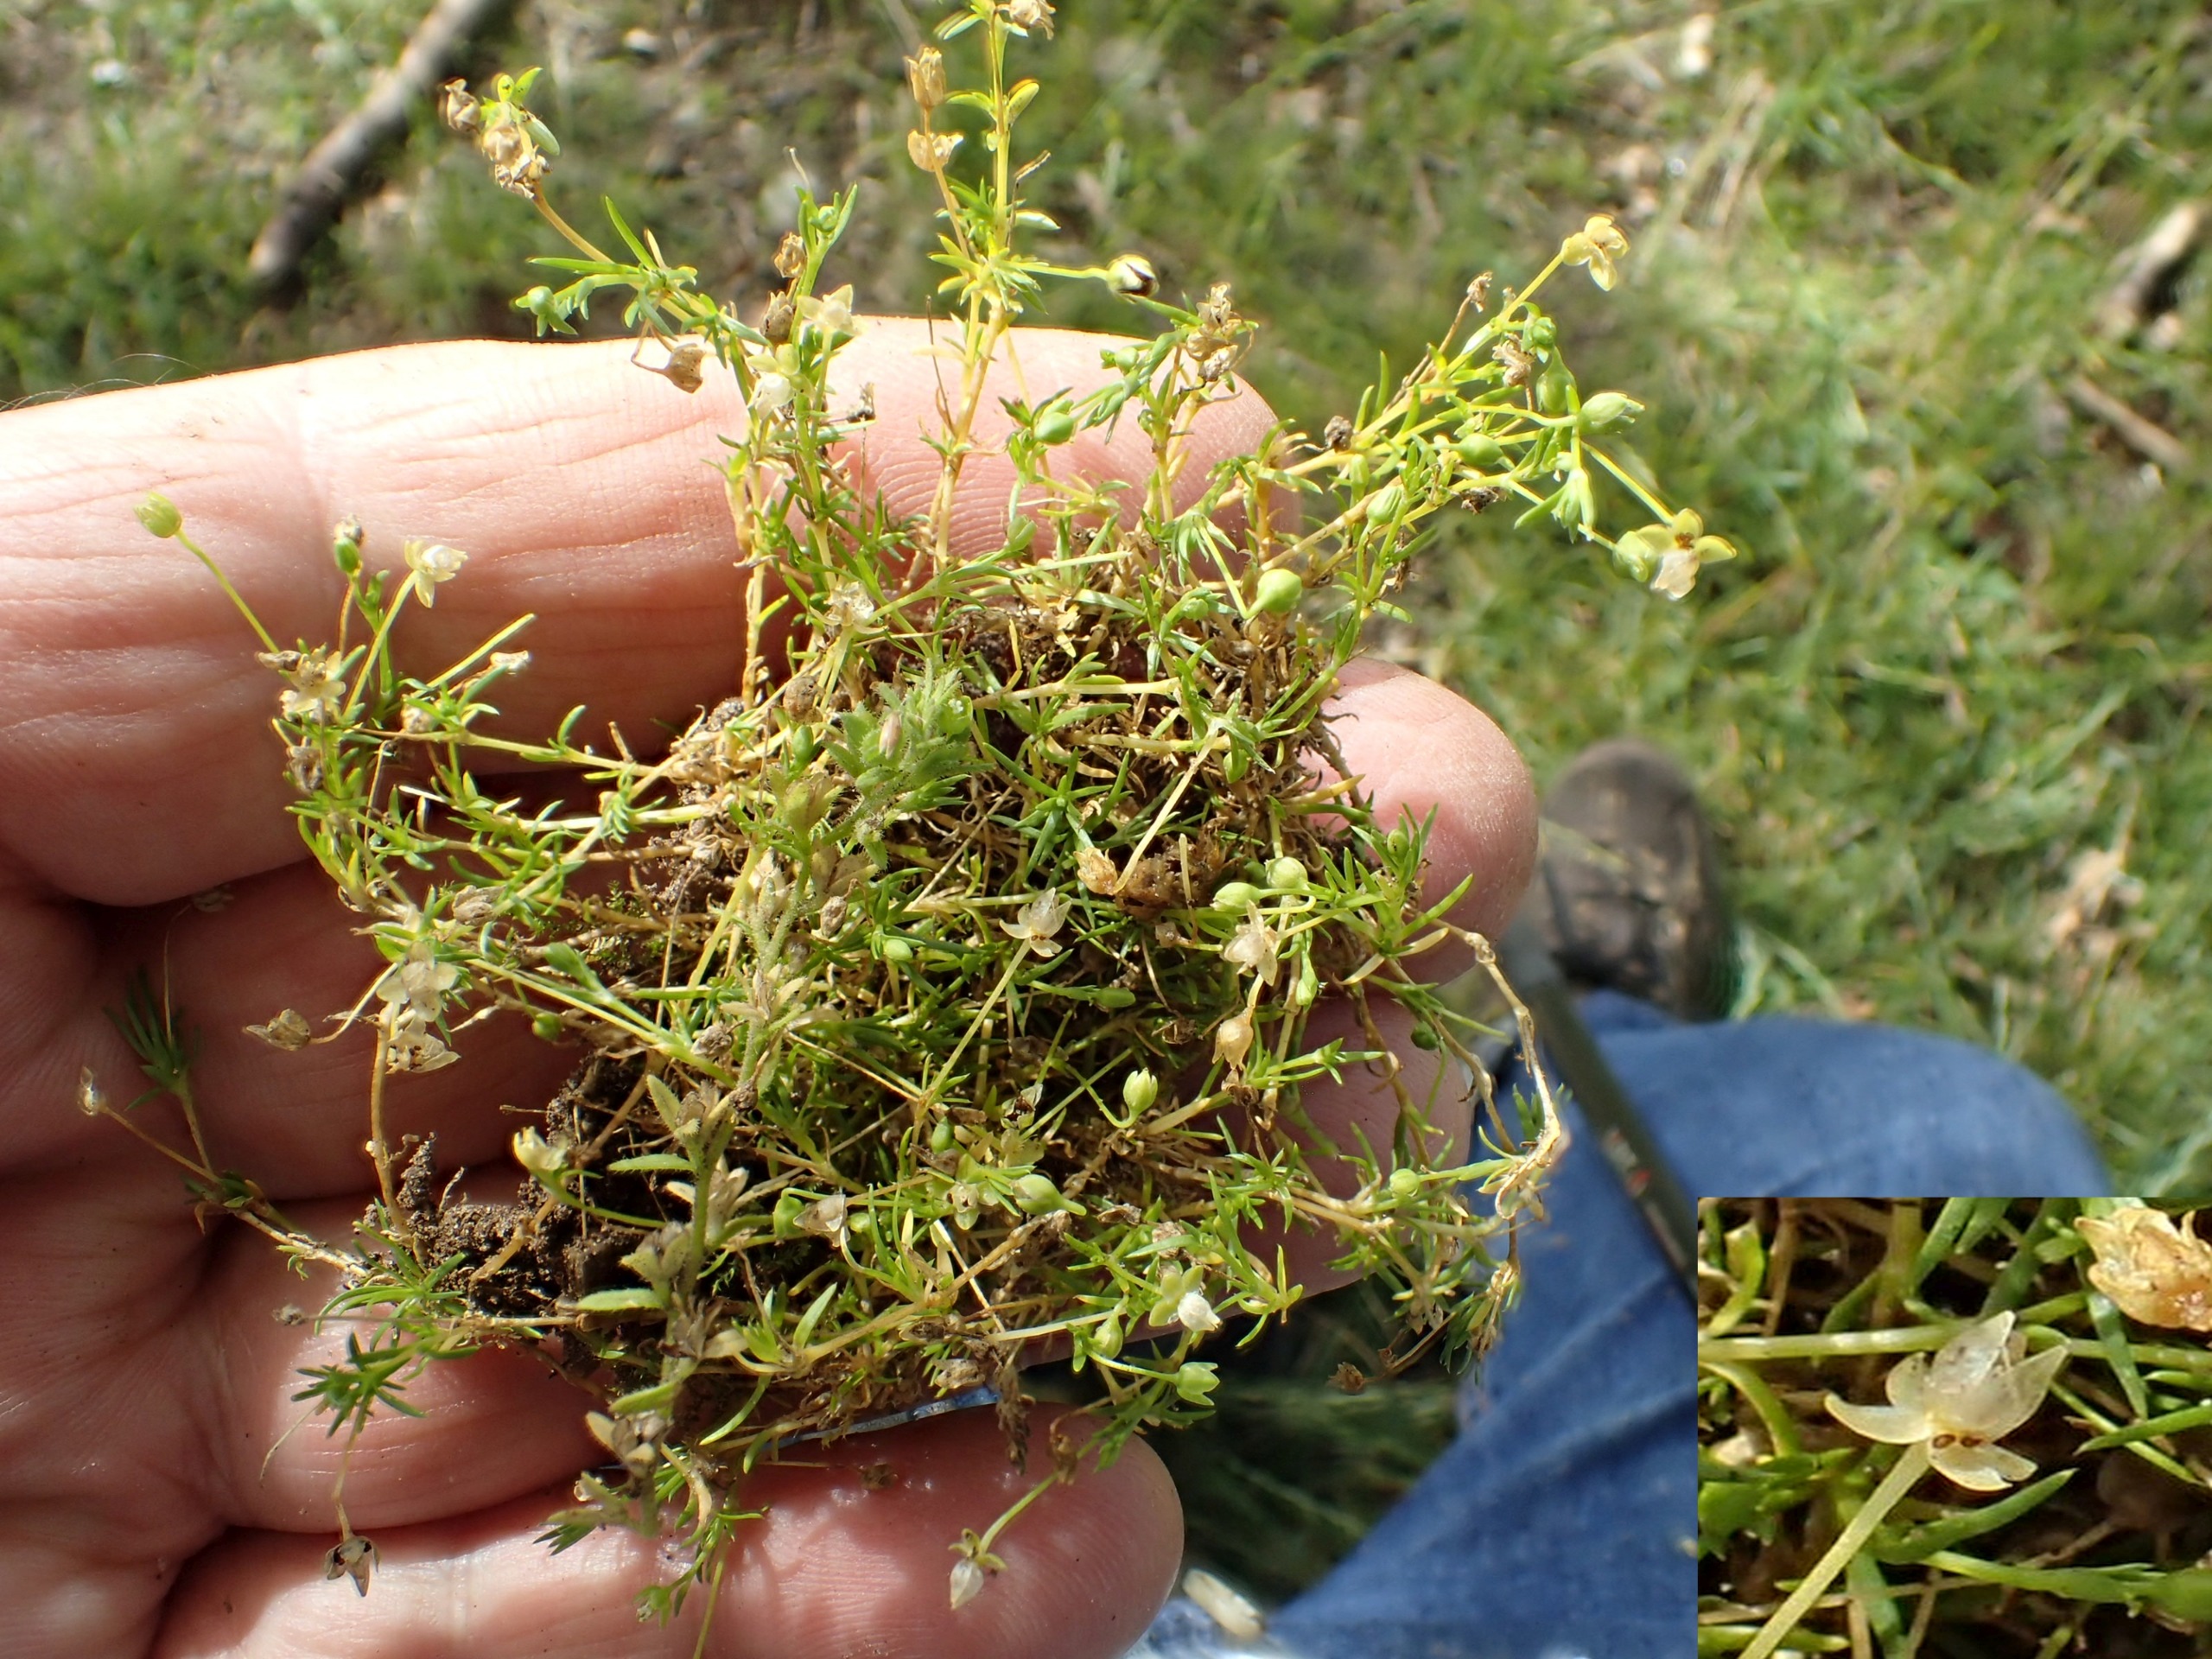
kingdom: Plantae
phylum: Tracheophyta
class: Magnoliopsida
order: Caryophyllales
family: Caryophyllaceae
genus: Sagina
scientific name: Sagina procumbens
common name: Almindelig firling
